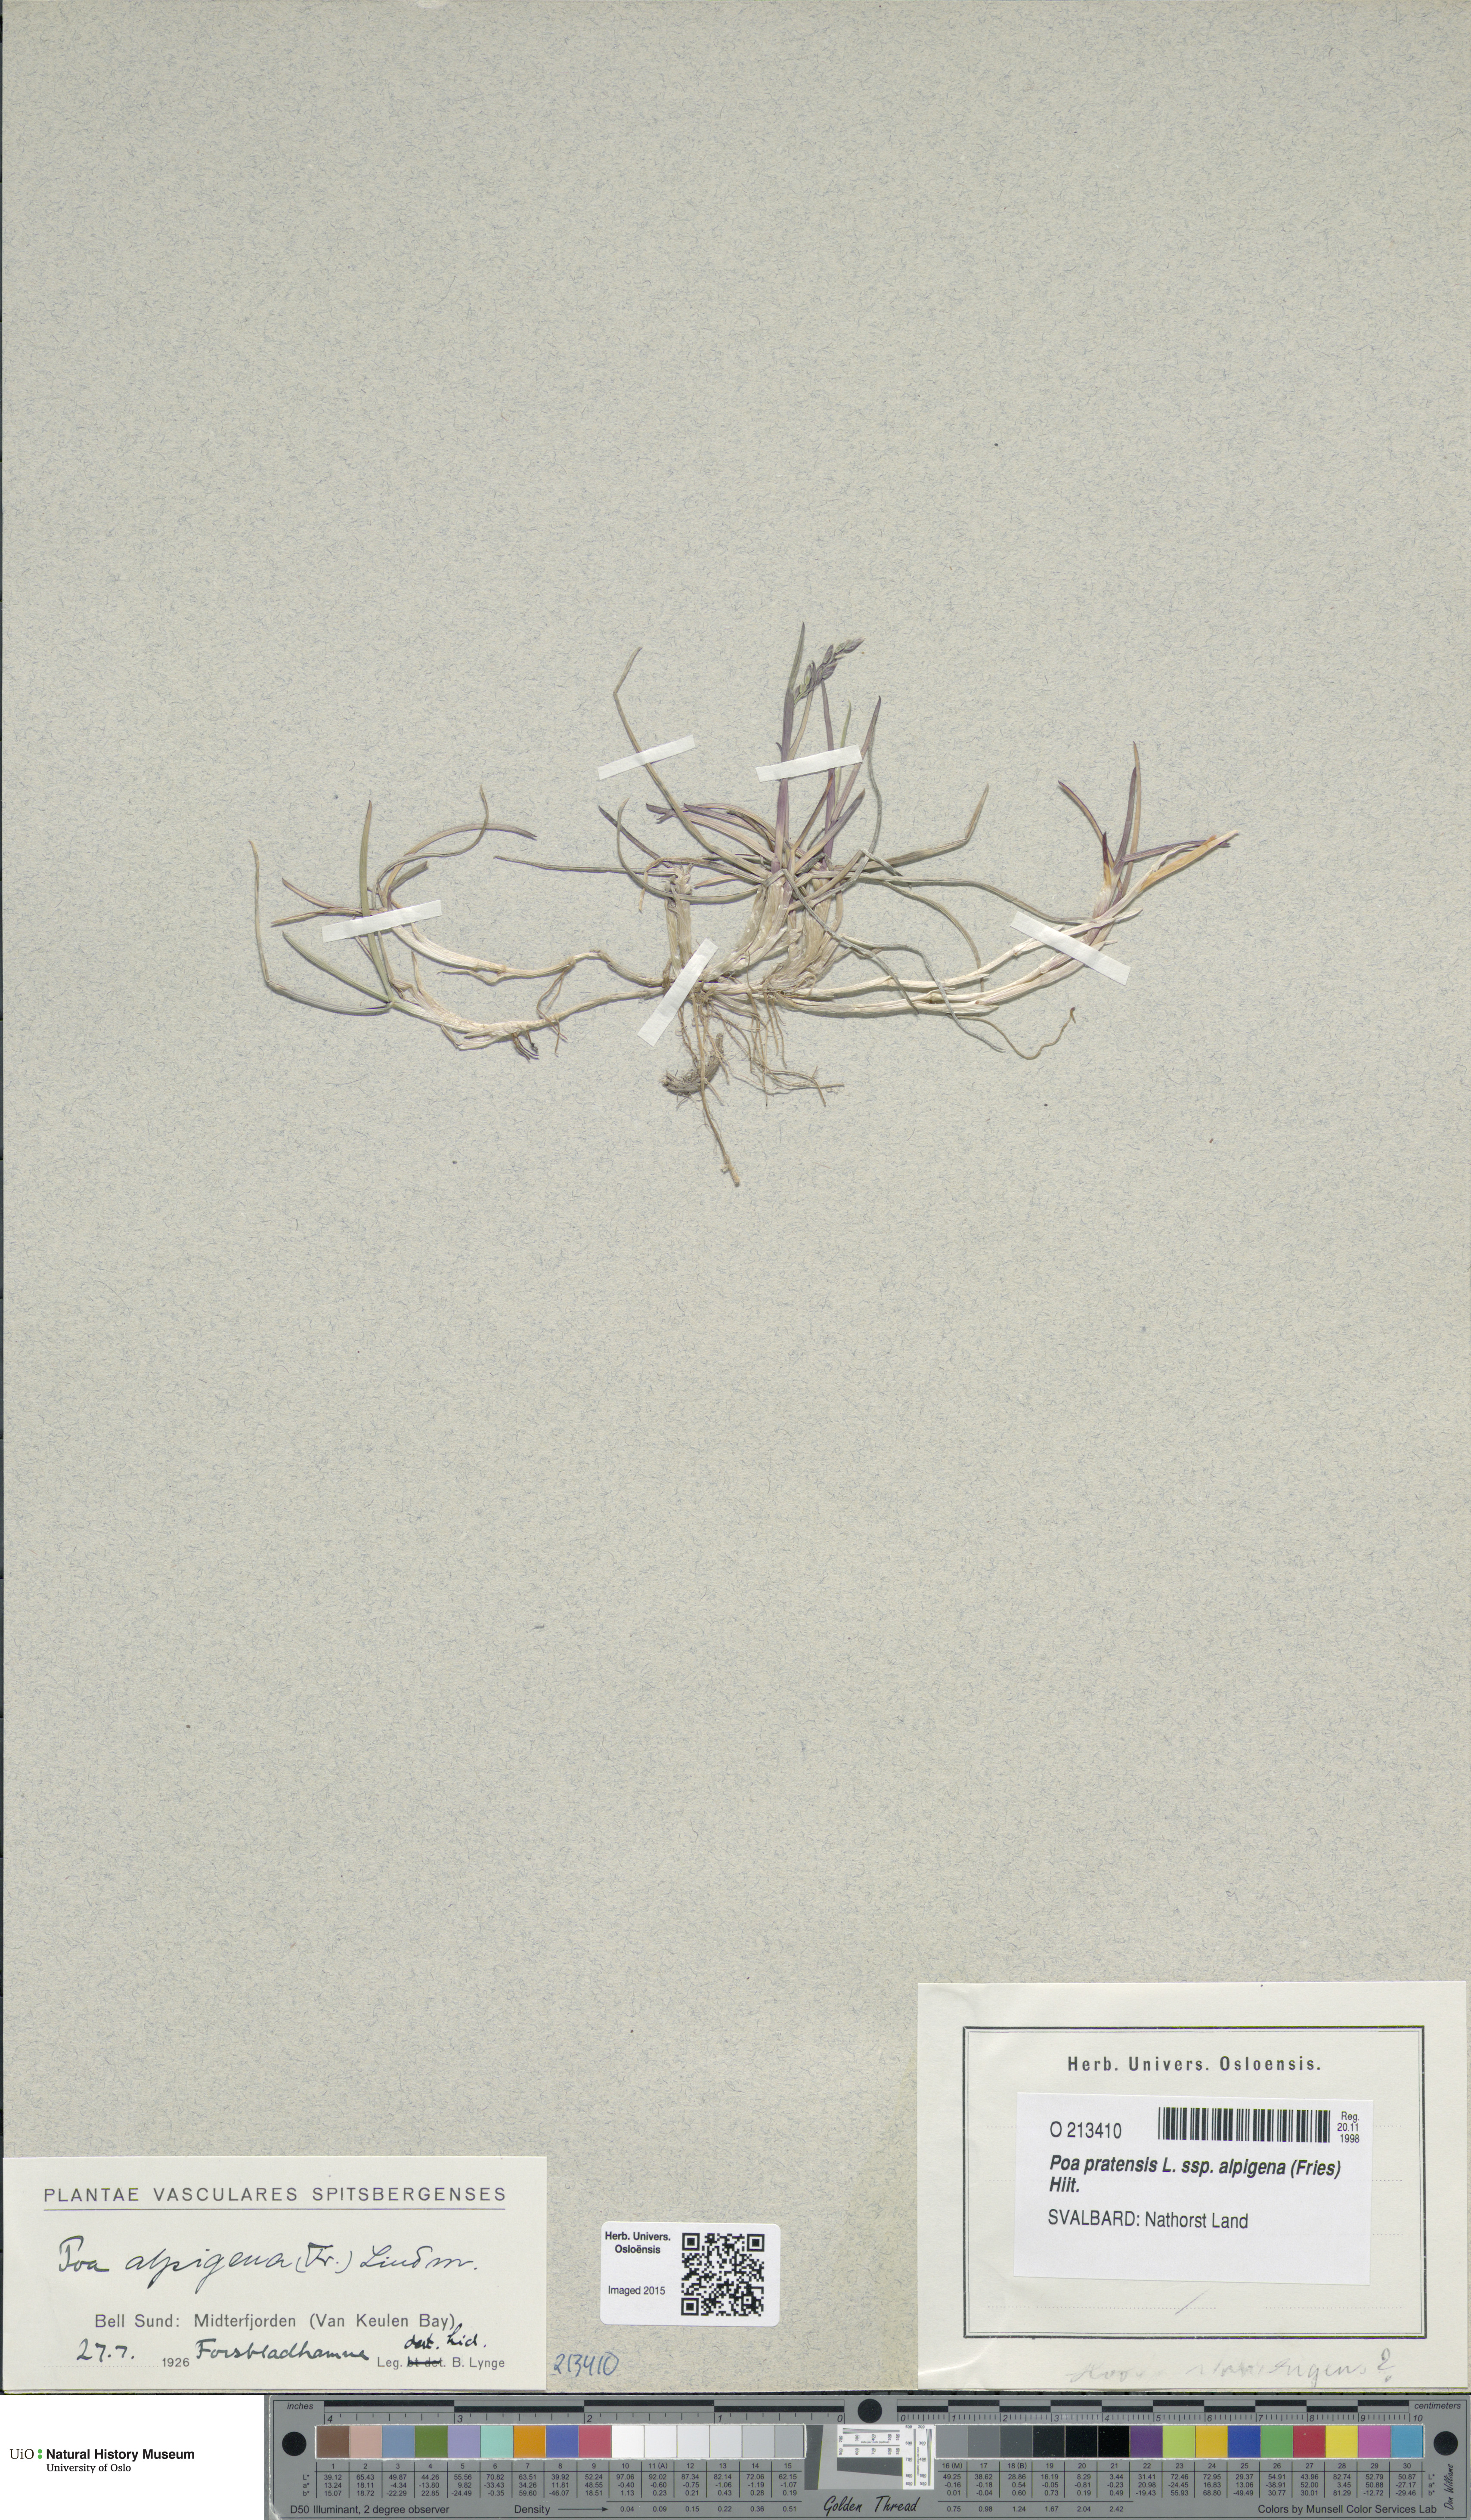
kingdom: Plantae
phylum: Tracheophyta
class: Liliopsida
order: Poales
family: Poaceae
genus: Poa
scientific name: Poa alpigena
